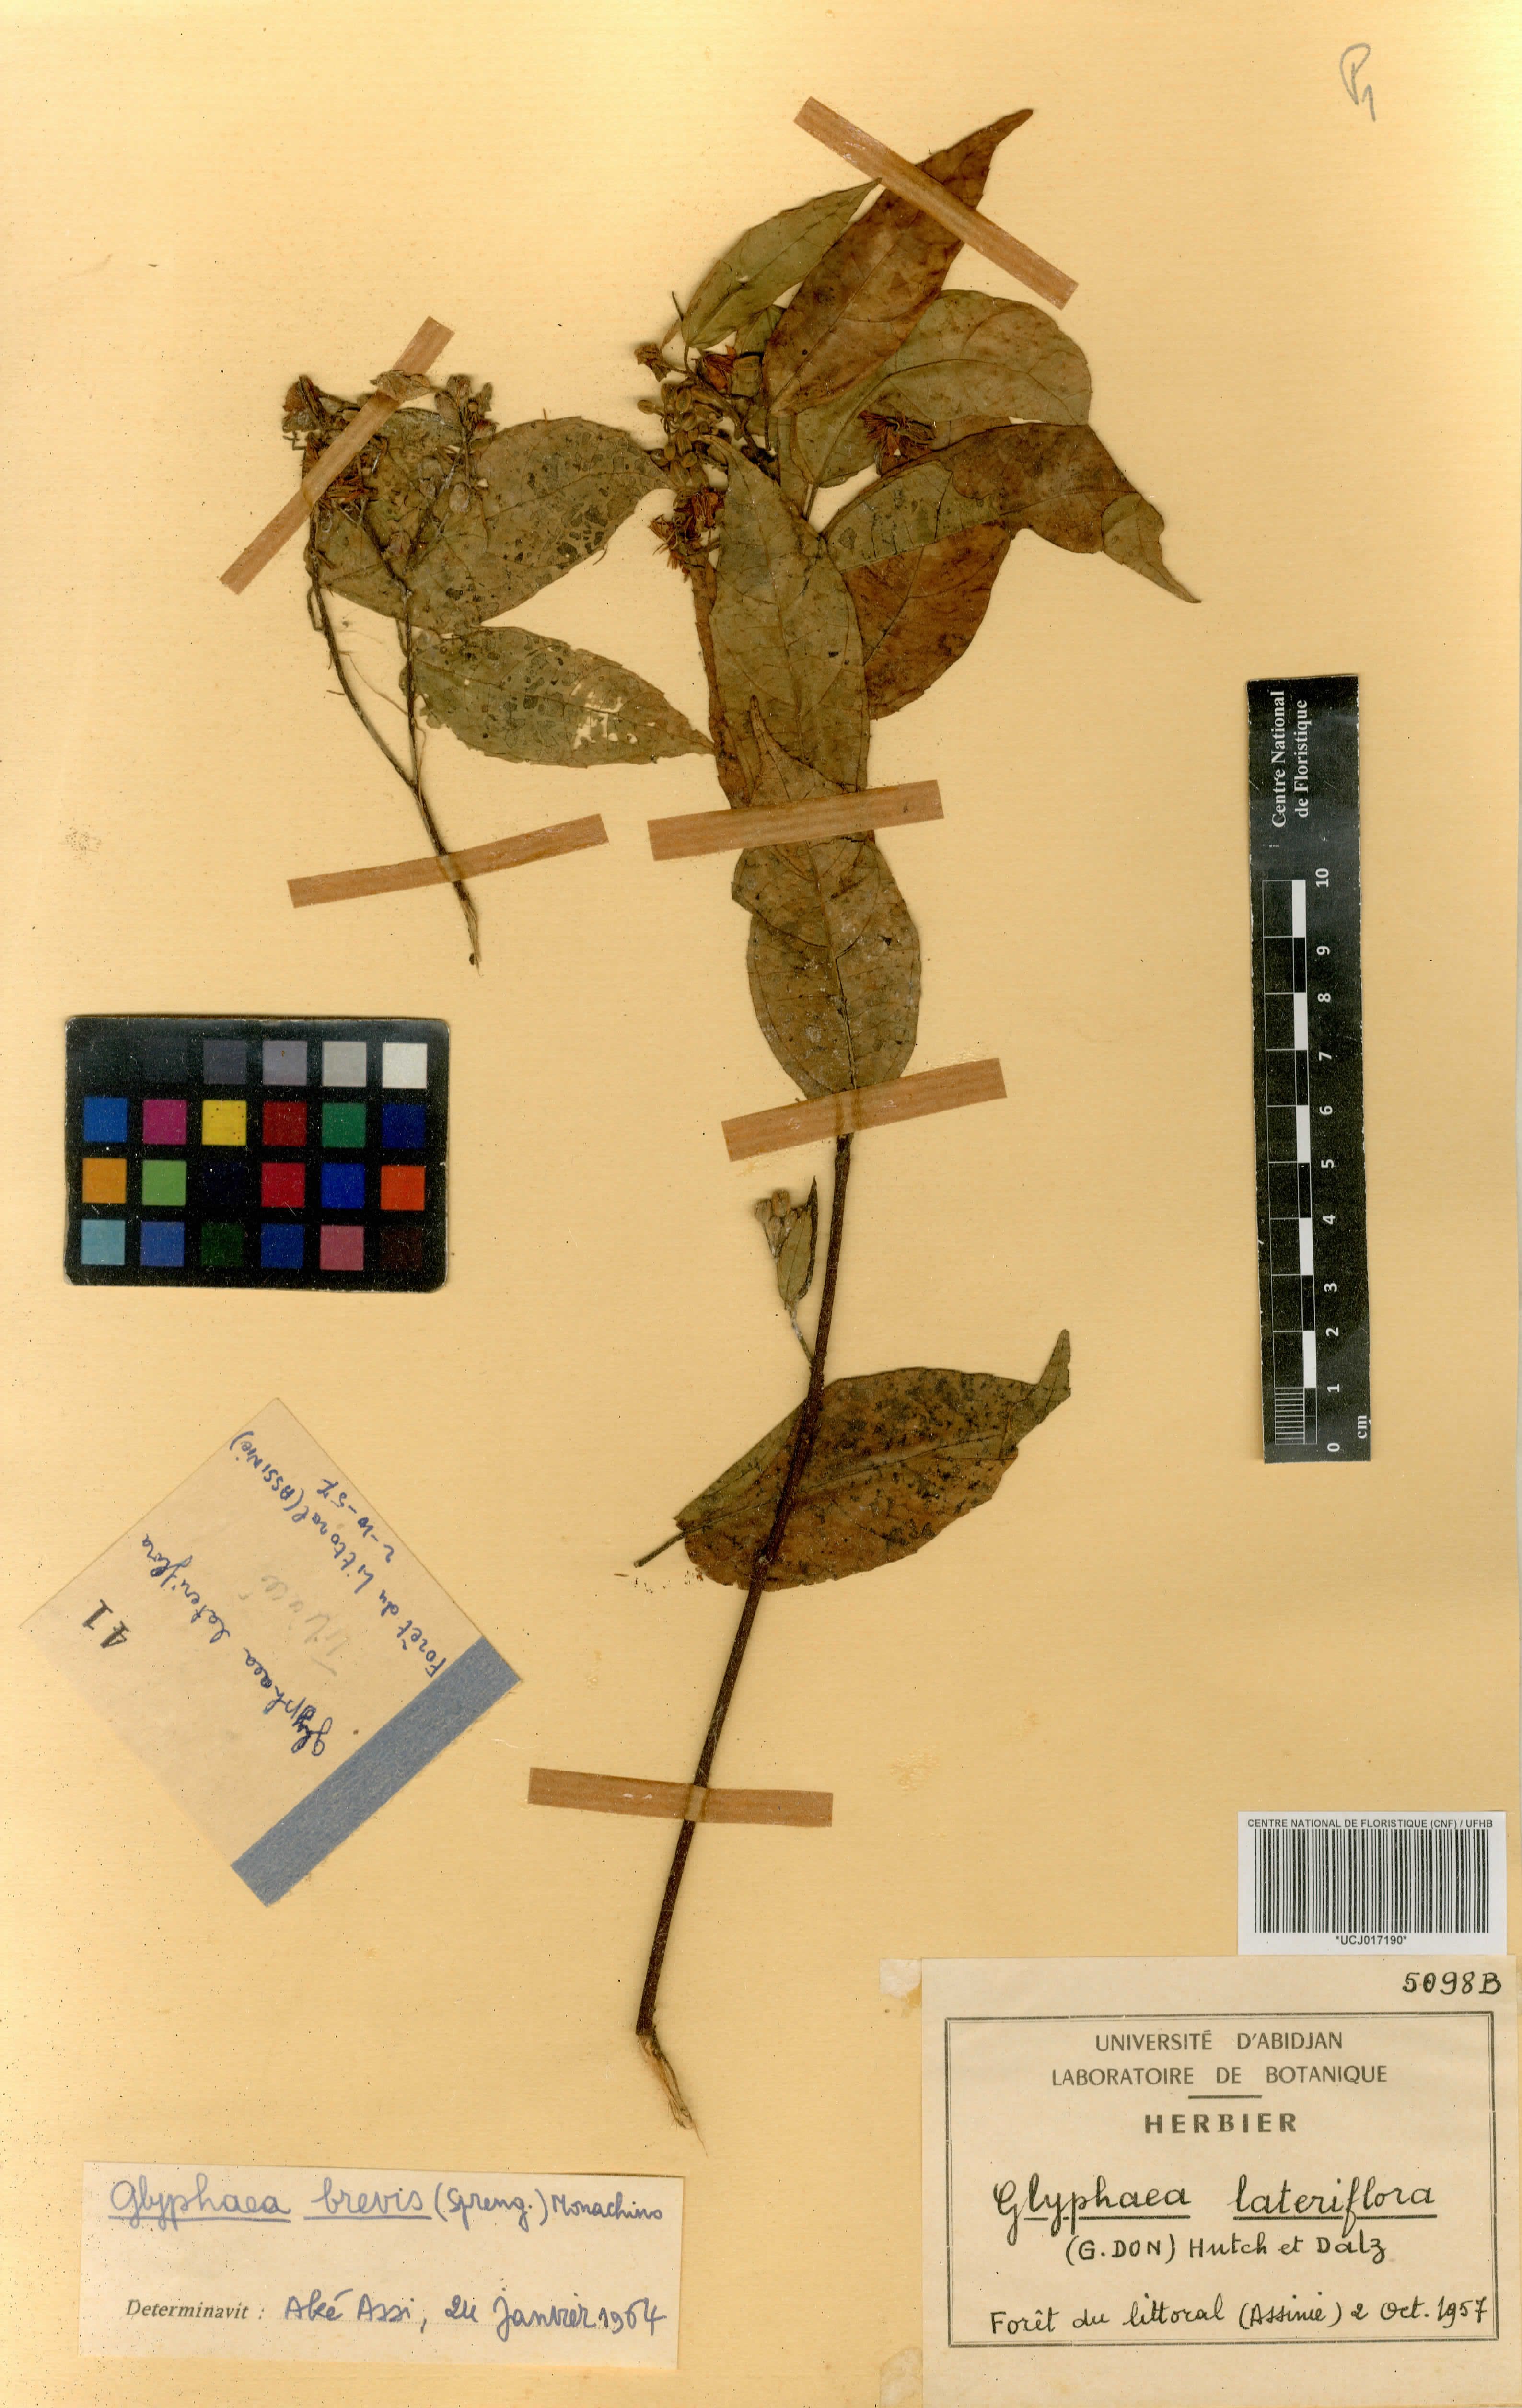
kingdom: Plantae
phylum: Tracheophyta
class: Magnoliopsida
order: Malvales
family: Malvaceae
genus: Glyphaea
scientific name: Glyphaea brevis
